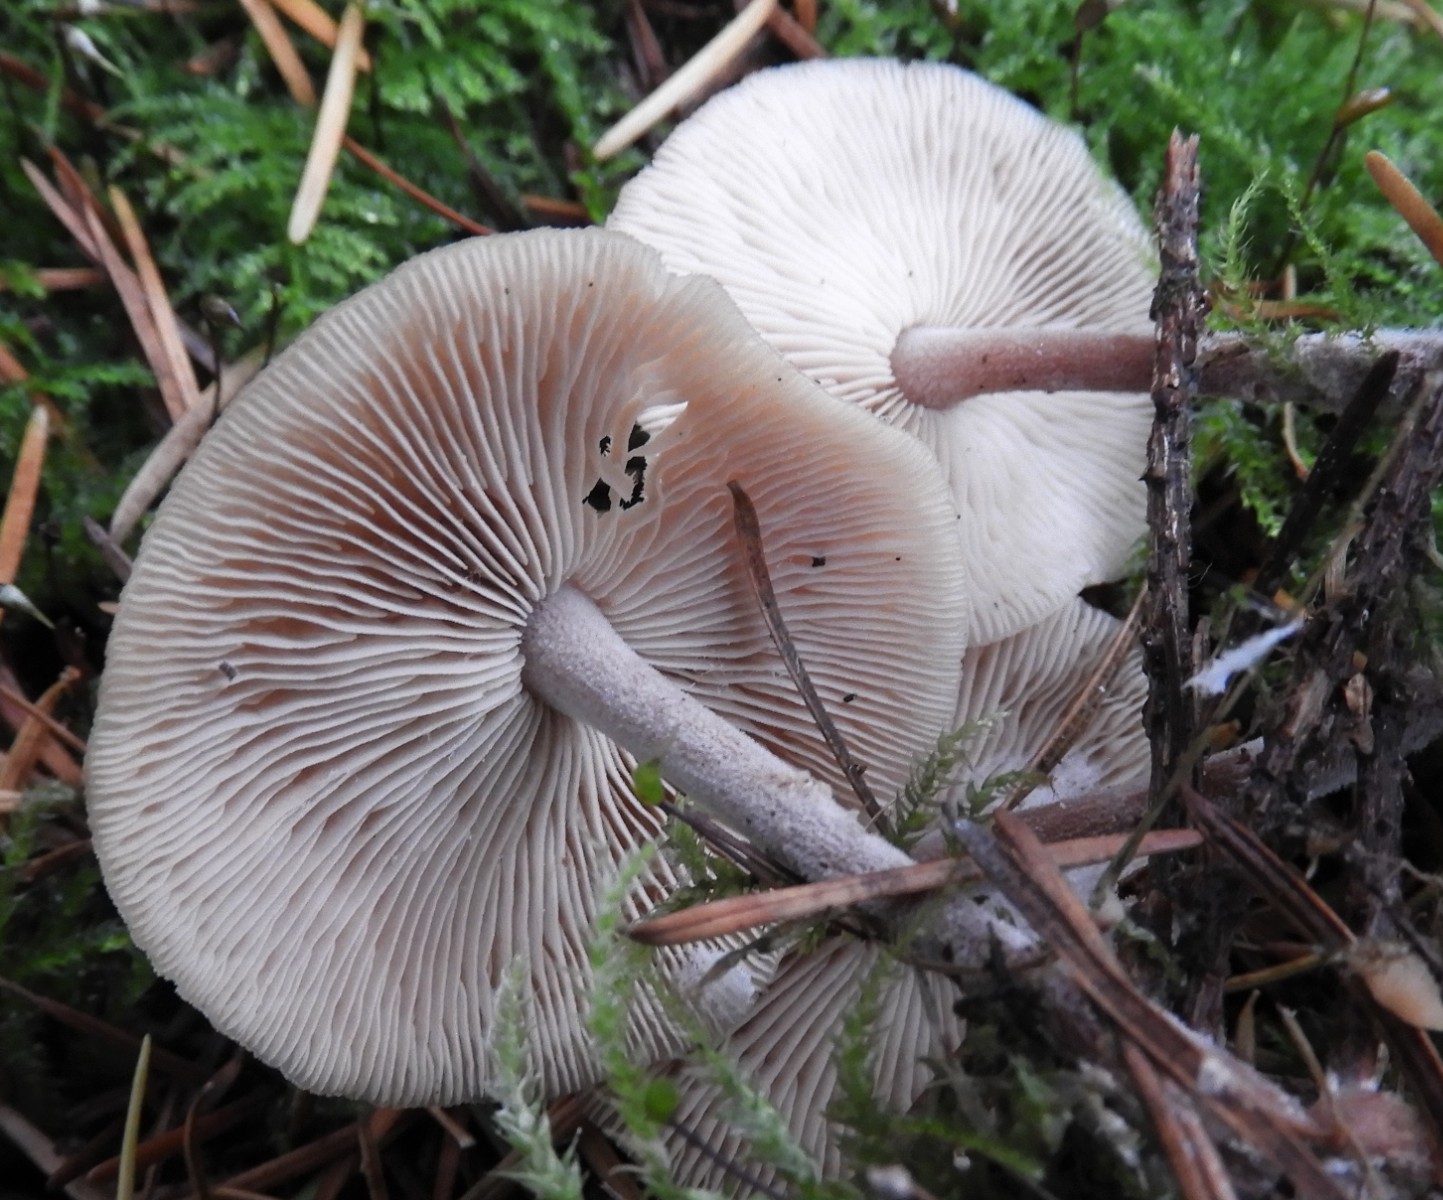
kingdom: Fungi
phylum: Basidiomycota
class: Agaricomycetes
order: Agaricales
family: Tricholomataceae
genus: Clitocybe
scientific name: Clitocybe fragrans
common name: vellugtende tragthat
